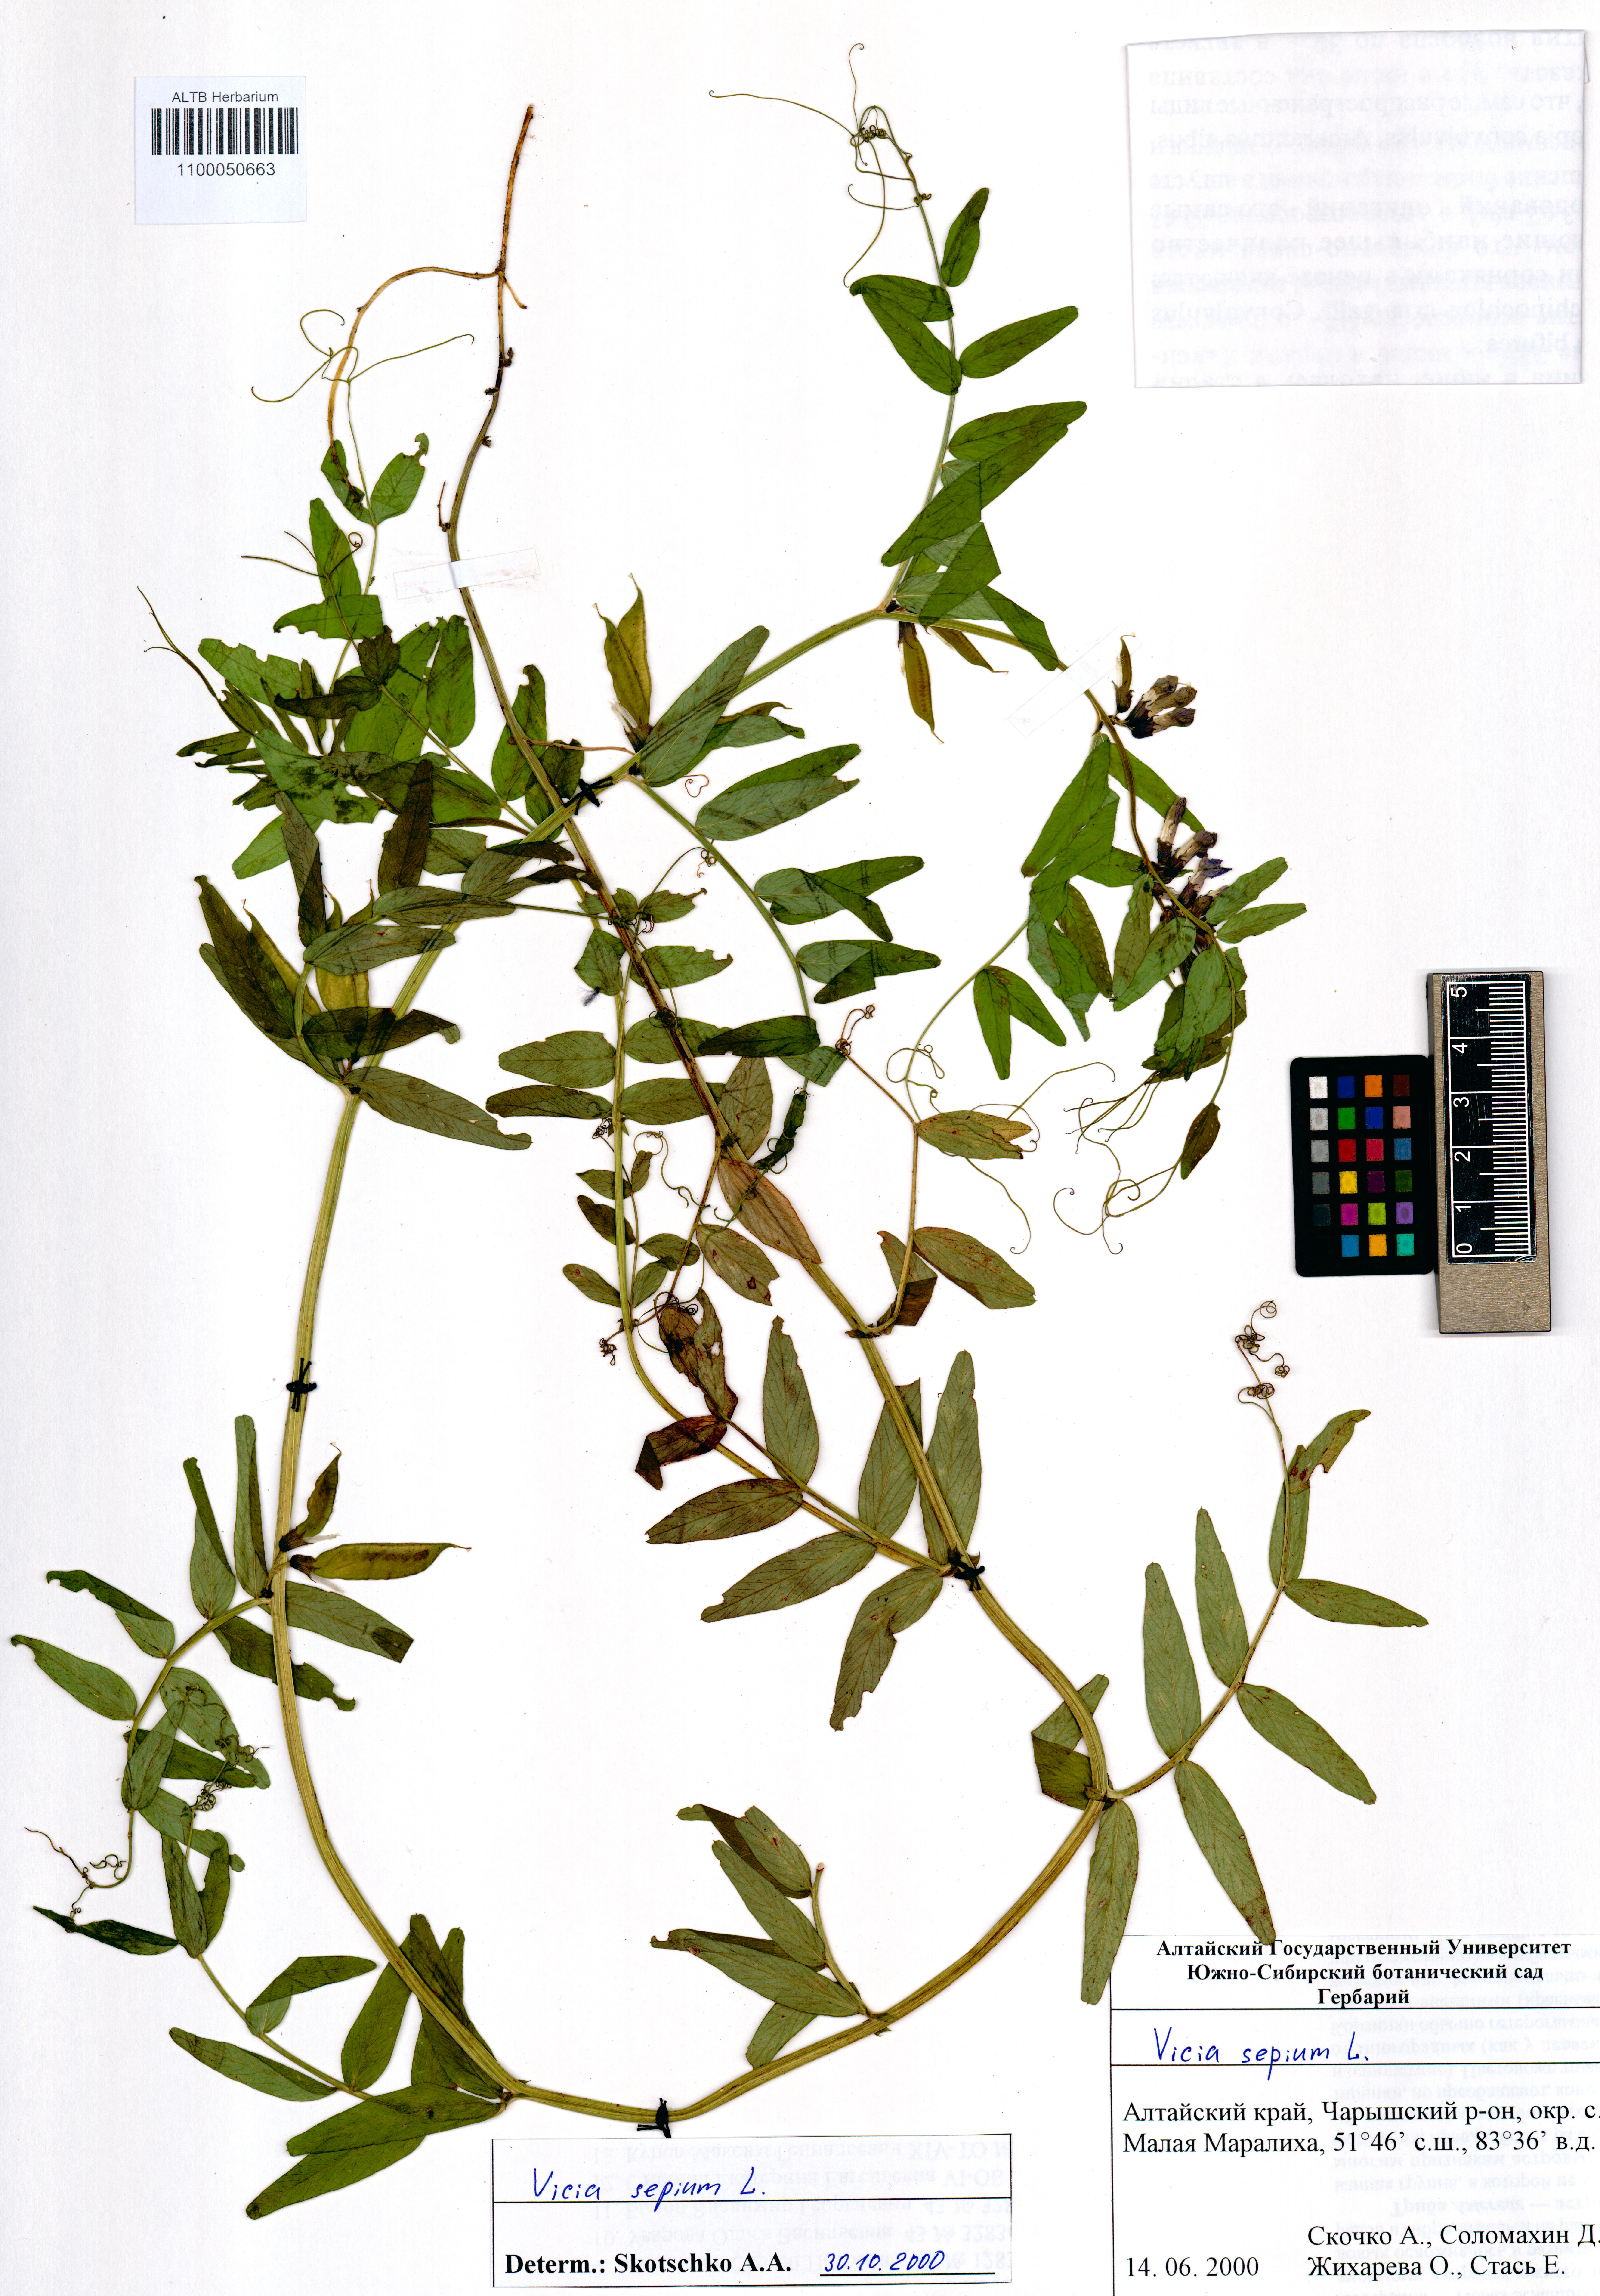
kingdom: Plantae
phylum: Tracheophyta
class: Magnoliopsida
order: Fabales
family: Fabaceae
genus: Vicia
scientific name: Vicia sepium
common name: Bush vetch
